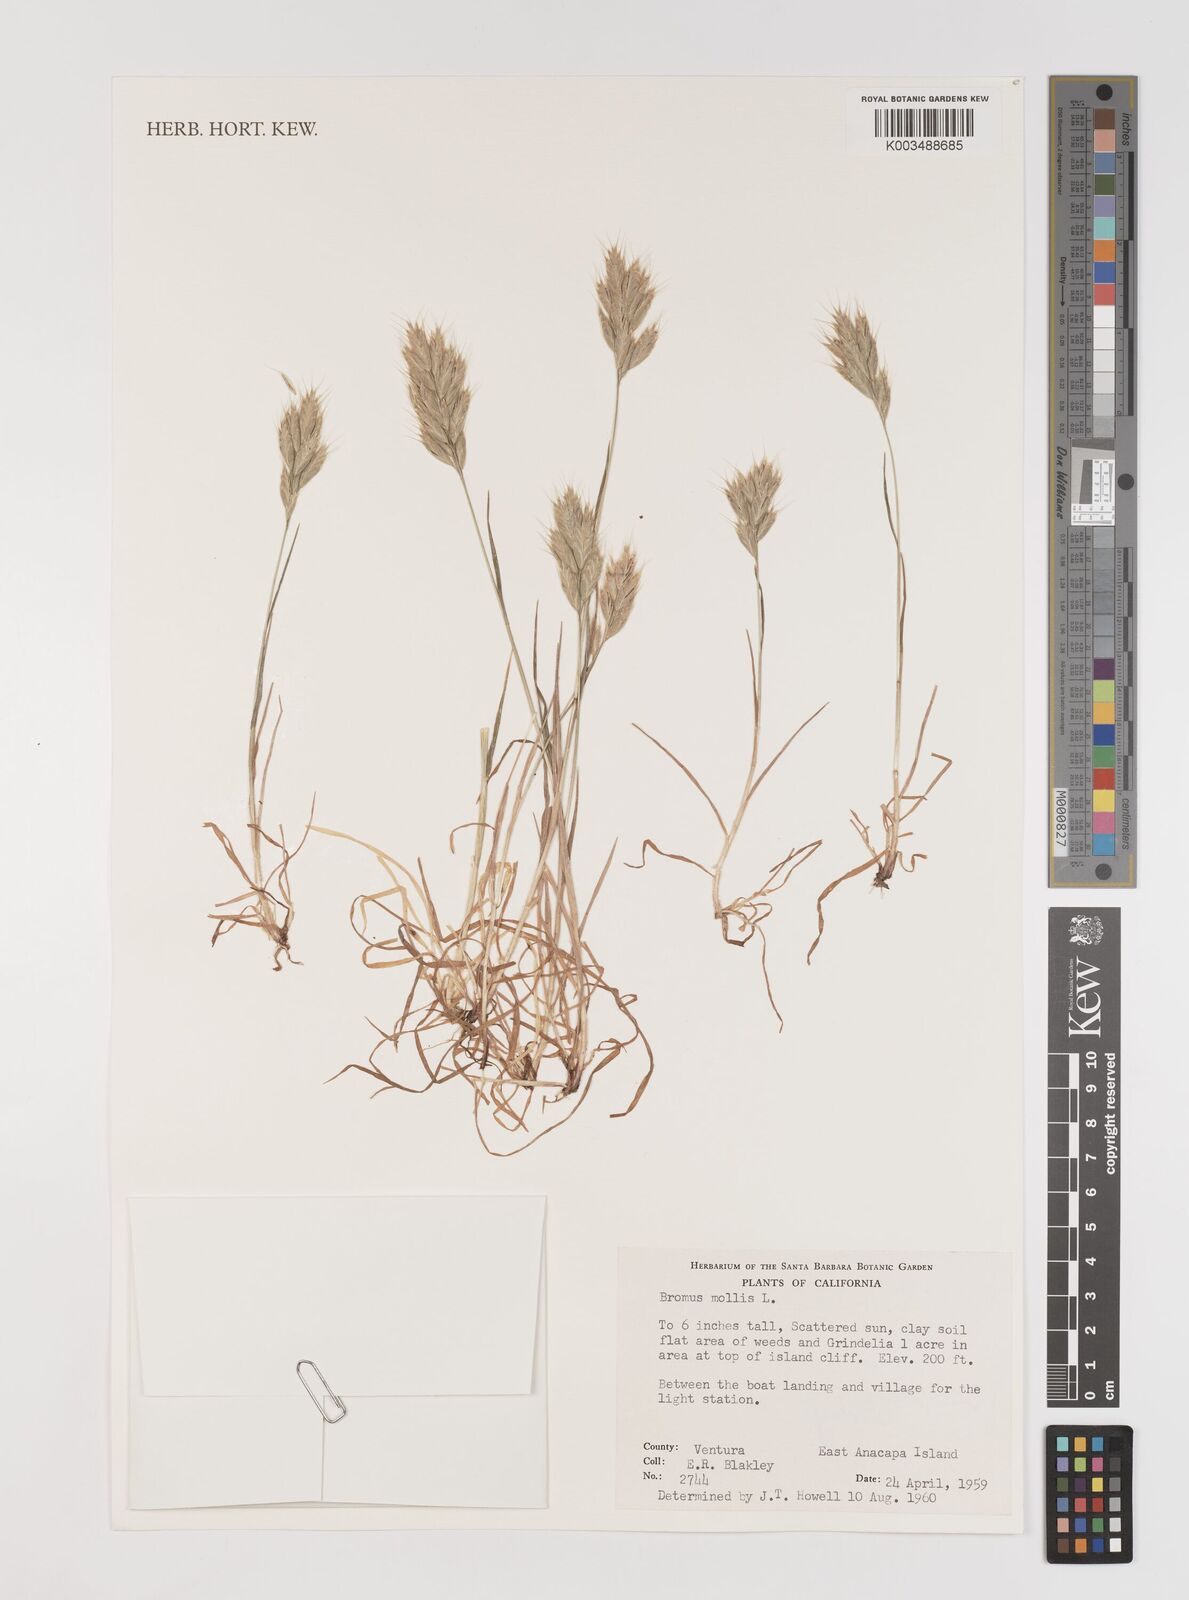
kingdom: Plantae
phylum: Tracheophyta
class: Liliopsida
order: Poales
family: Poaceae
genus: Bromus
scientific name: Bromus hordeaceus
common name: Soft brome
